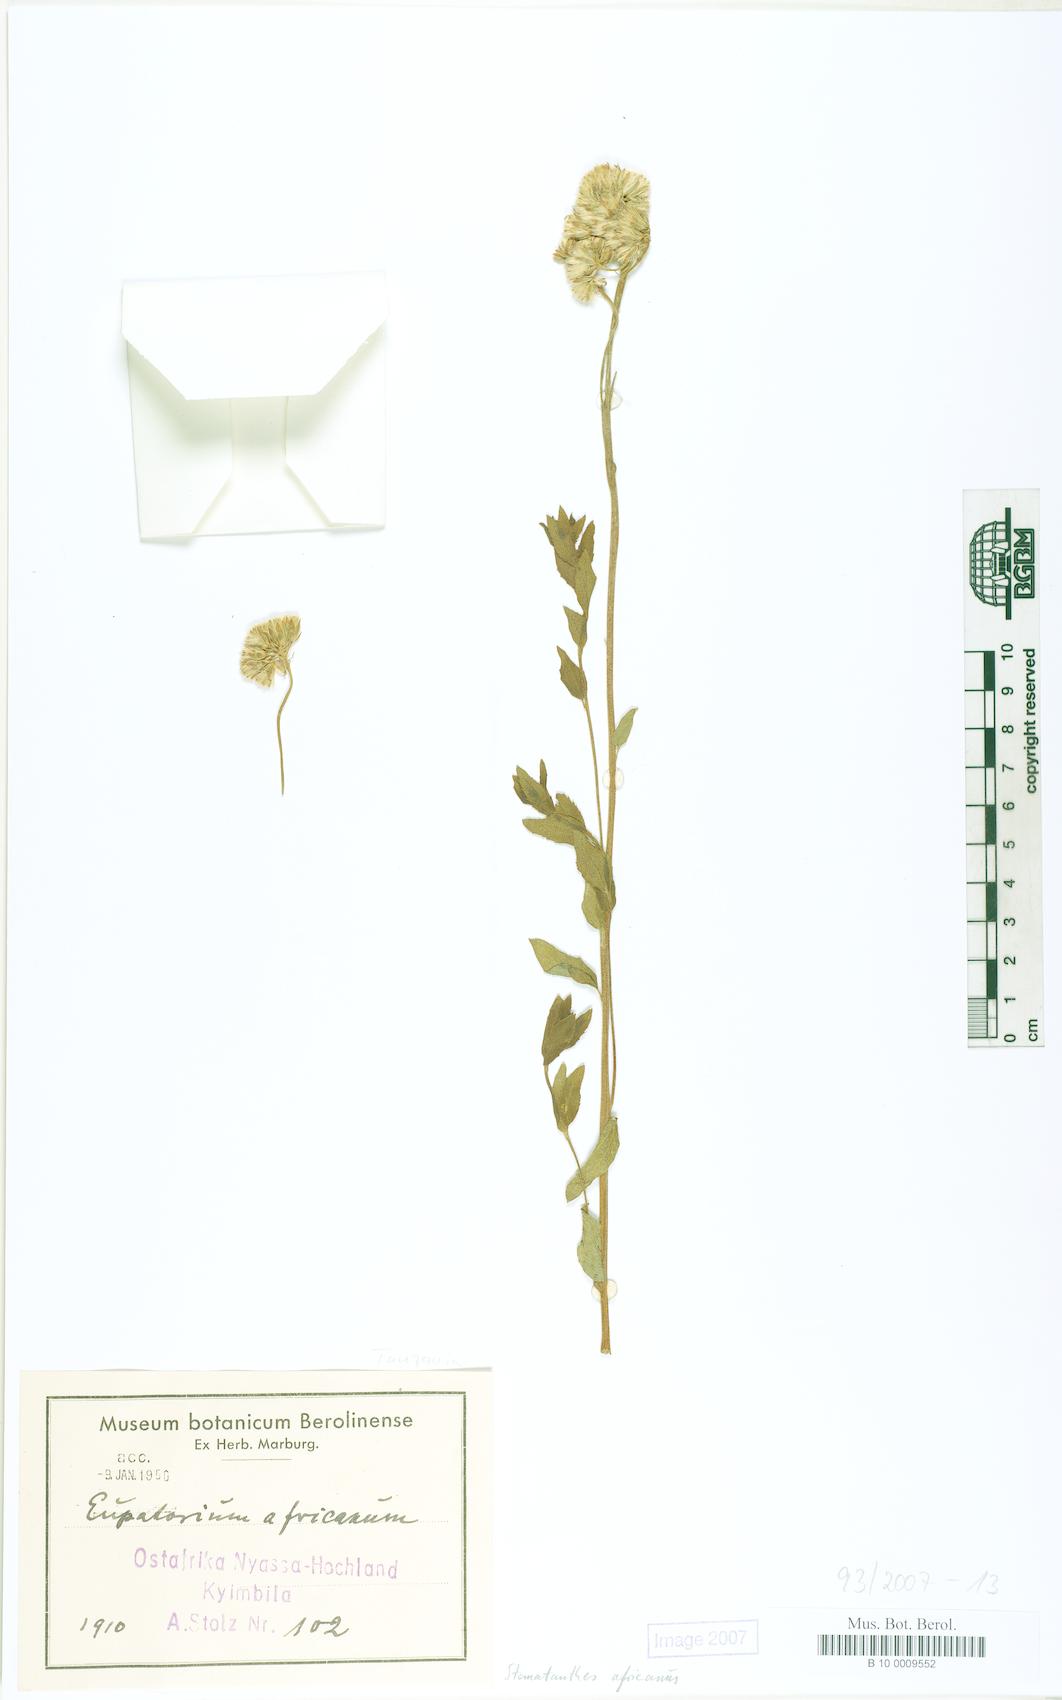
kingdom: Plantae
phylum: Tracheophyta
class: Magnoliopsida
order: Asterales
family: Asteraceae
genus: Stomatanthes
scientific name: Stomatanthes africanus
